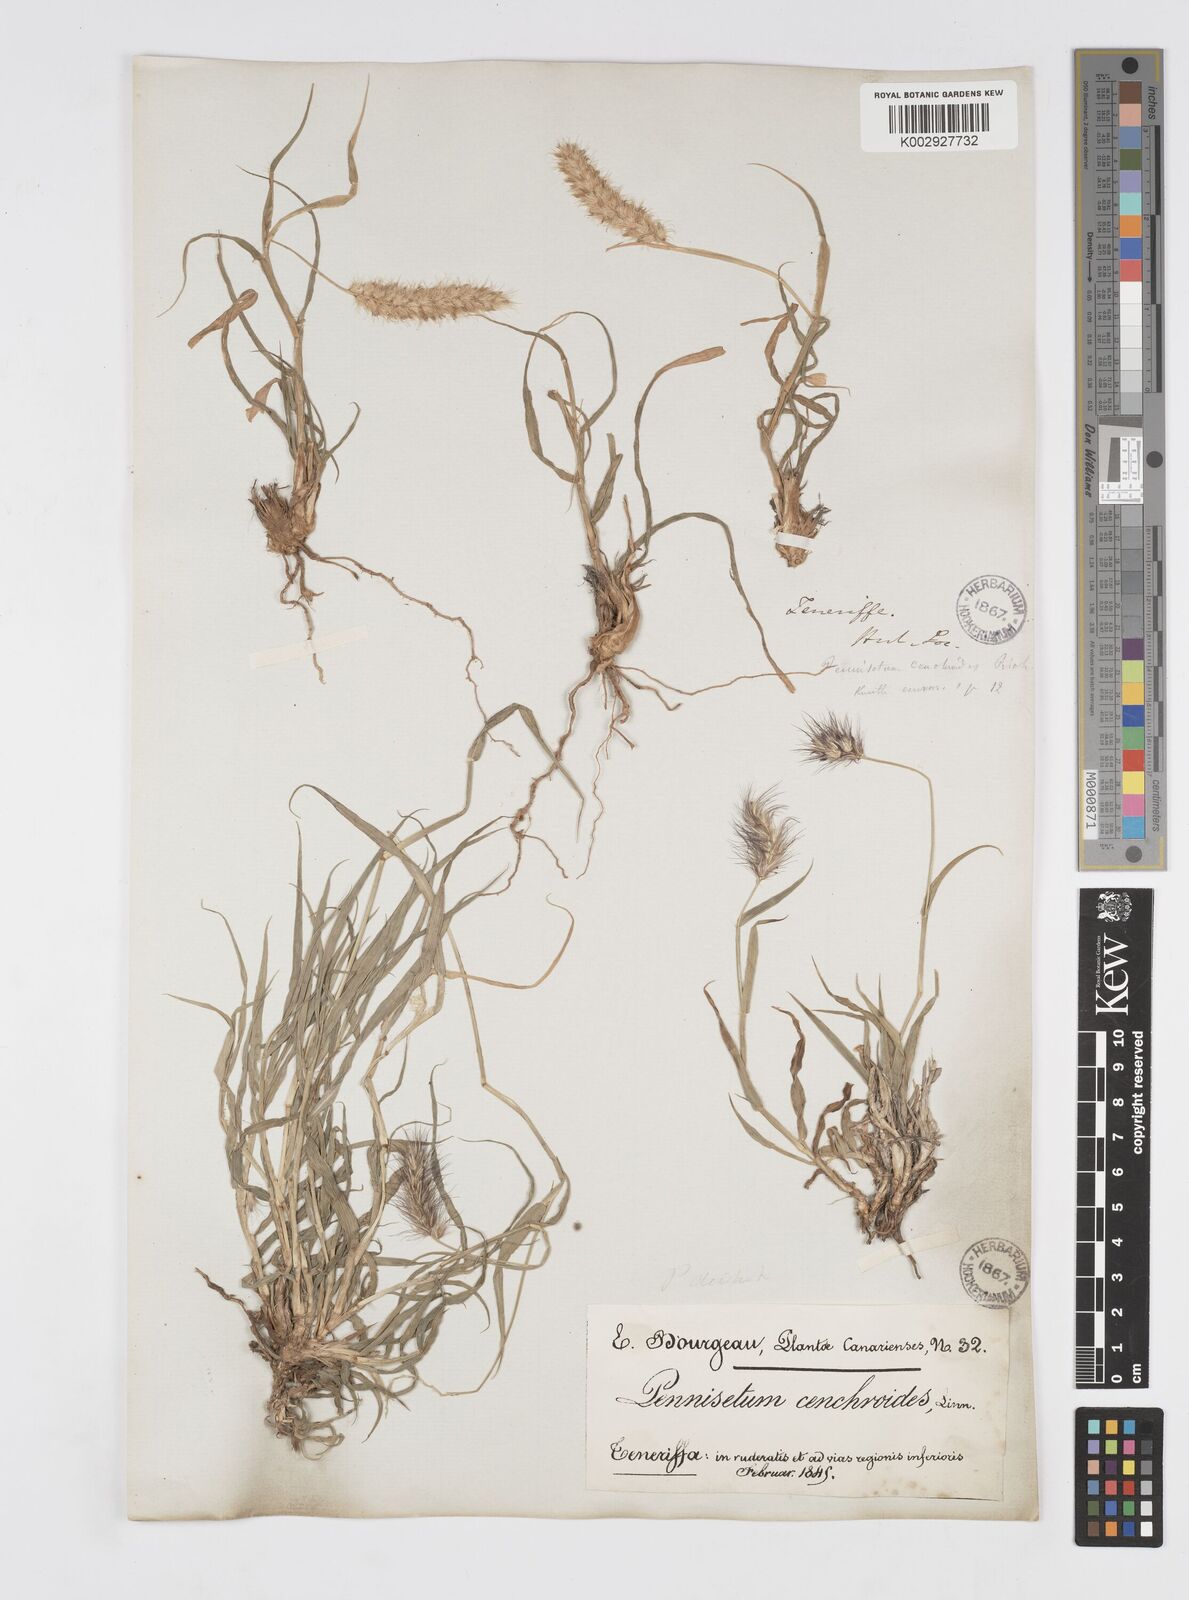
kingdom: Plantae
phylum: Tracheophyta
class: Liliopsida
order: Poales
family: Poaceae
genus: Cenchrus
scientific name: Cenchrus ciliaris
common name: Buffelgrass
